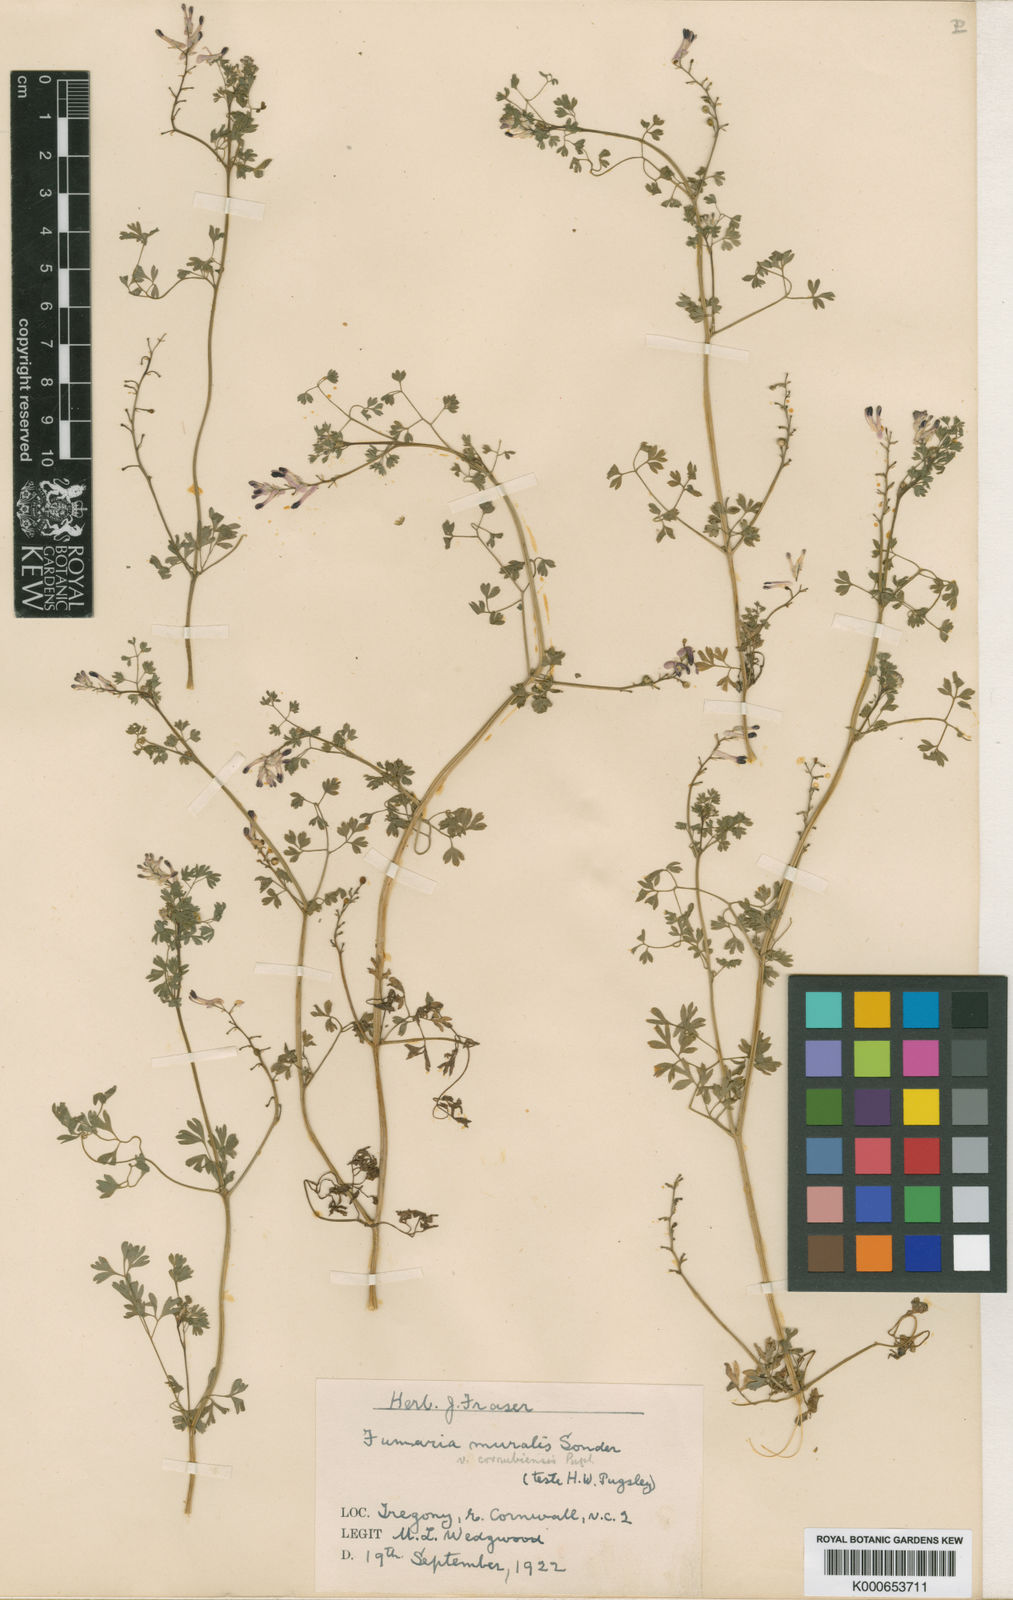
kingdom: Plantae
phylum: Tracheophyta
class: Magnoliopsida
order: Ranunculales
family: Papaveraceae
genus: Fumaria
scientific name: Fumaria muralis
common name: Common ramping-fumitory
